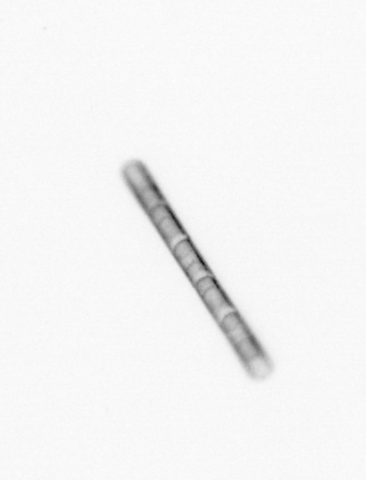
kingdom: Chromista
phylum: Ochrophyta
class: Bacillariophyceae
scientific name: Bacillariophyceae
